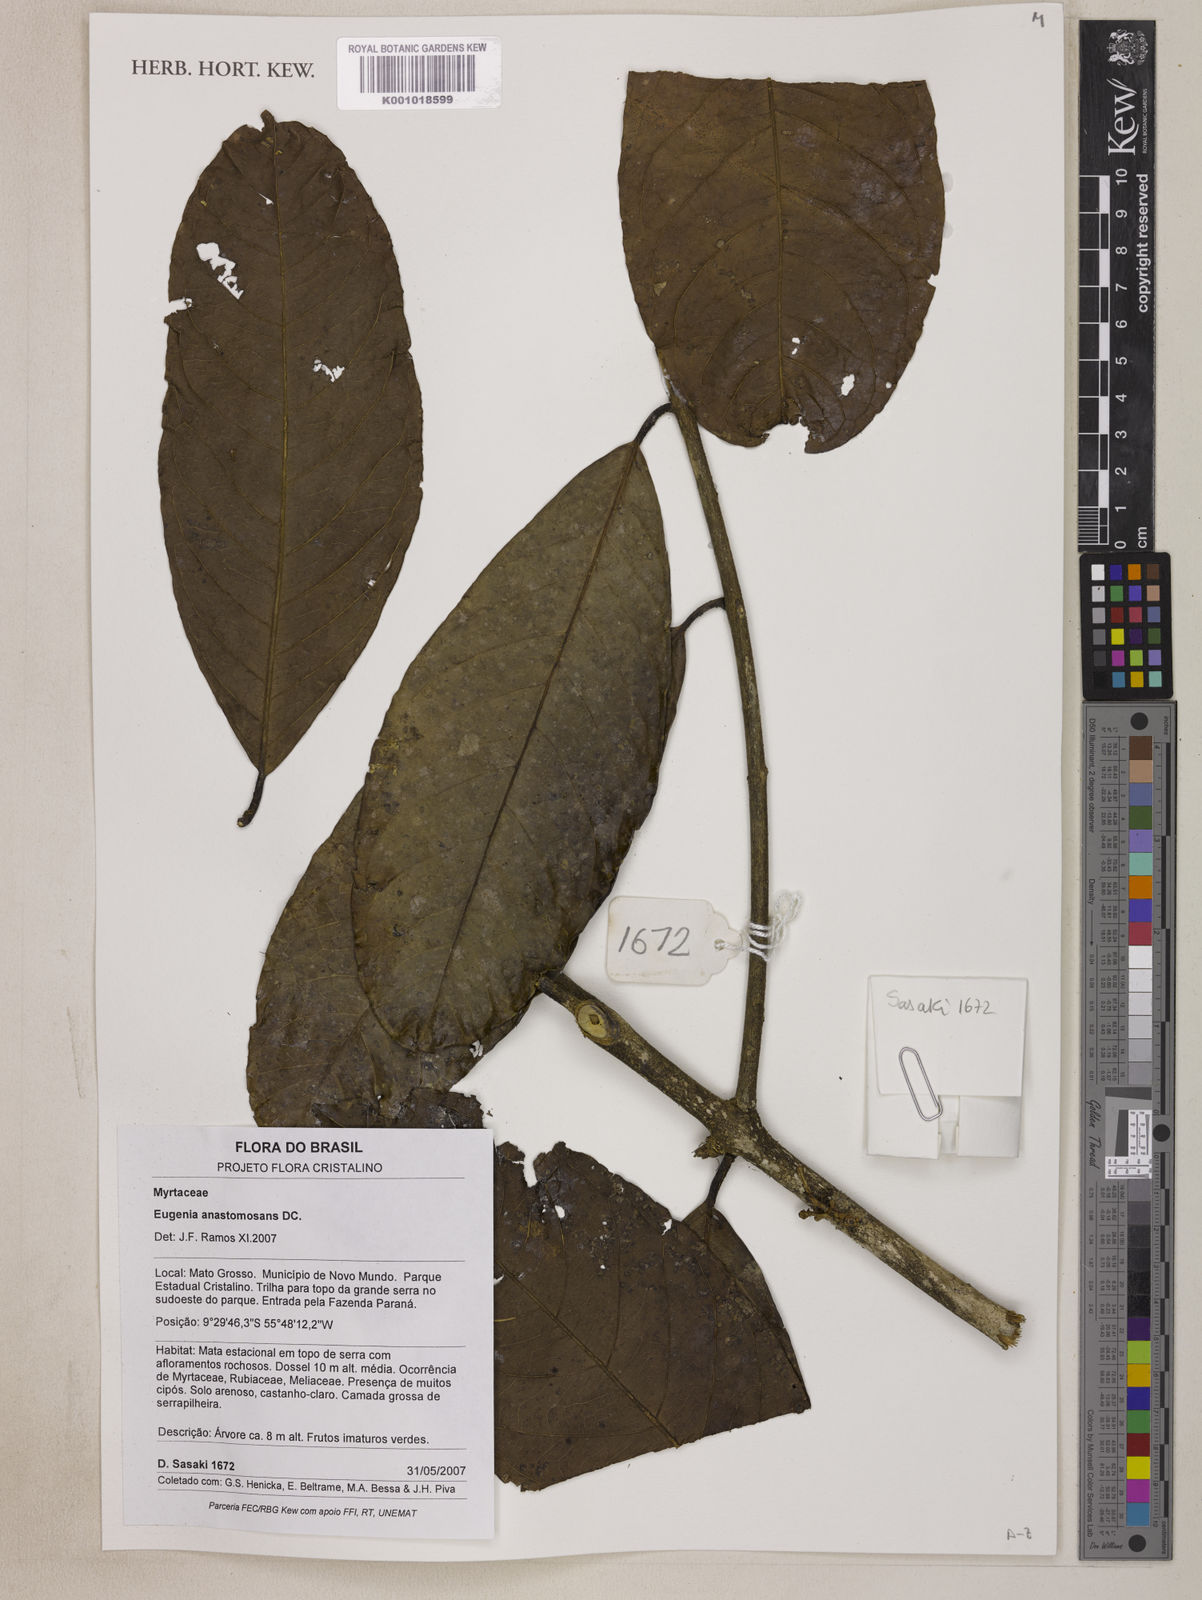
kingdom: Plantae
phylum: Tracheophyta
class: Magnoliopsida
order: Myrtales
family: Myrtaceae
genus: Eugenia
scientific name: Eugenia anastomosans
